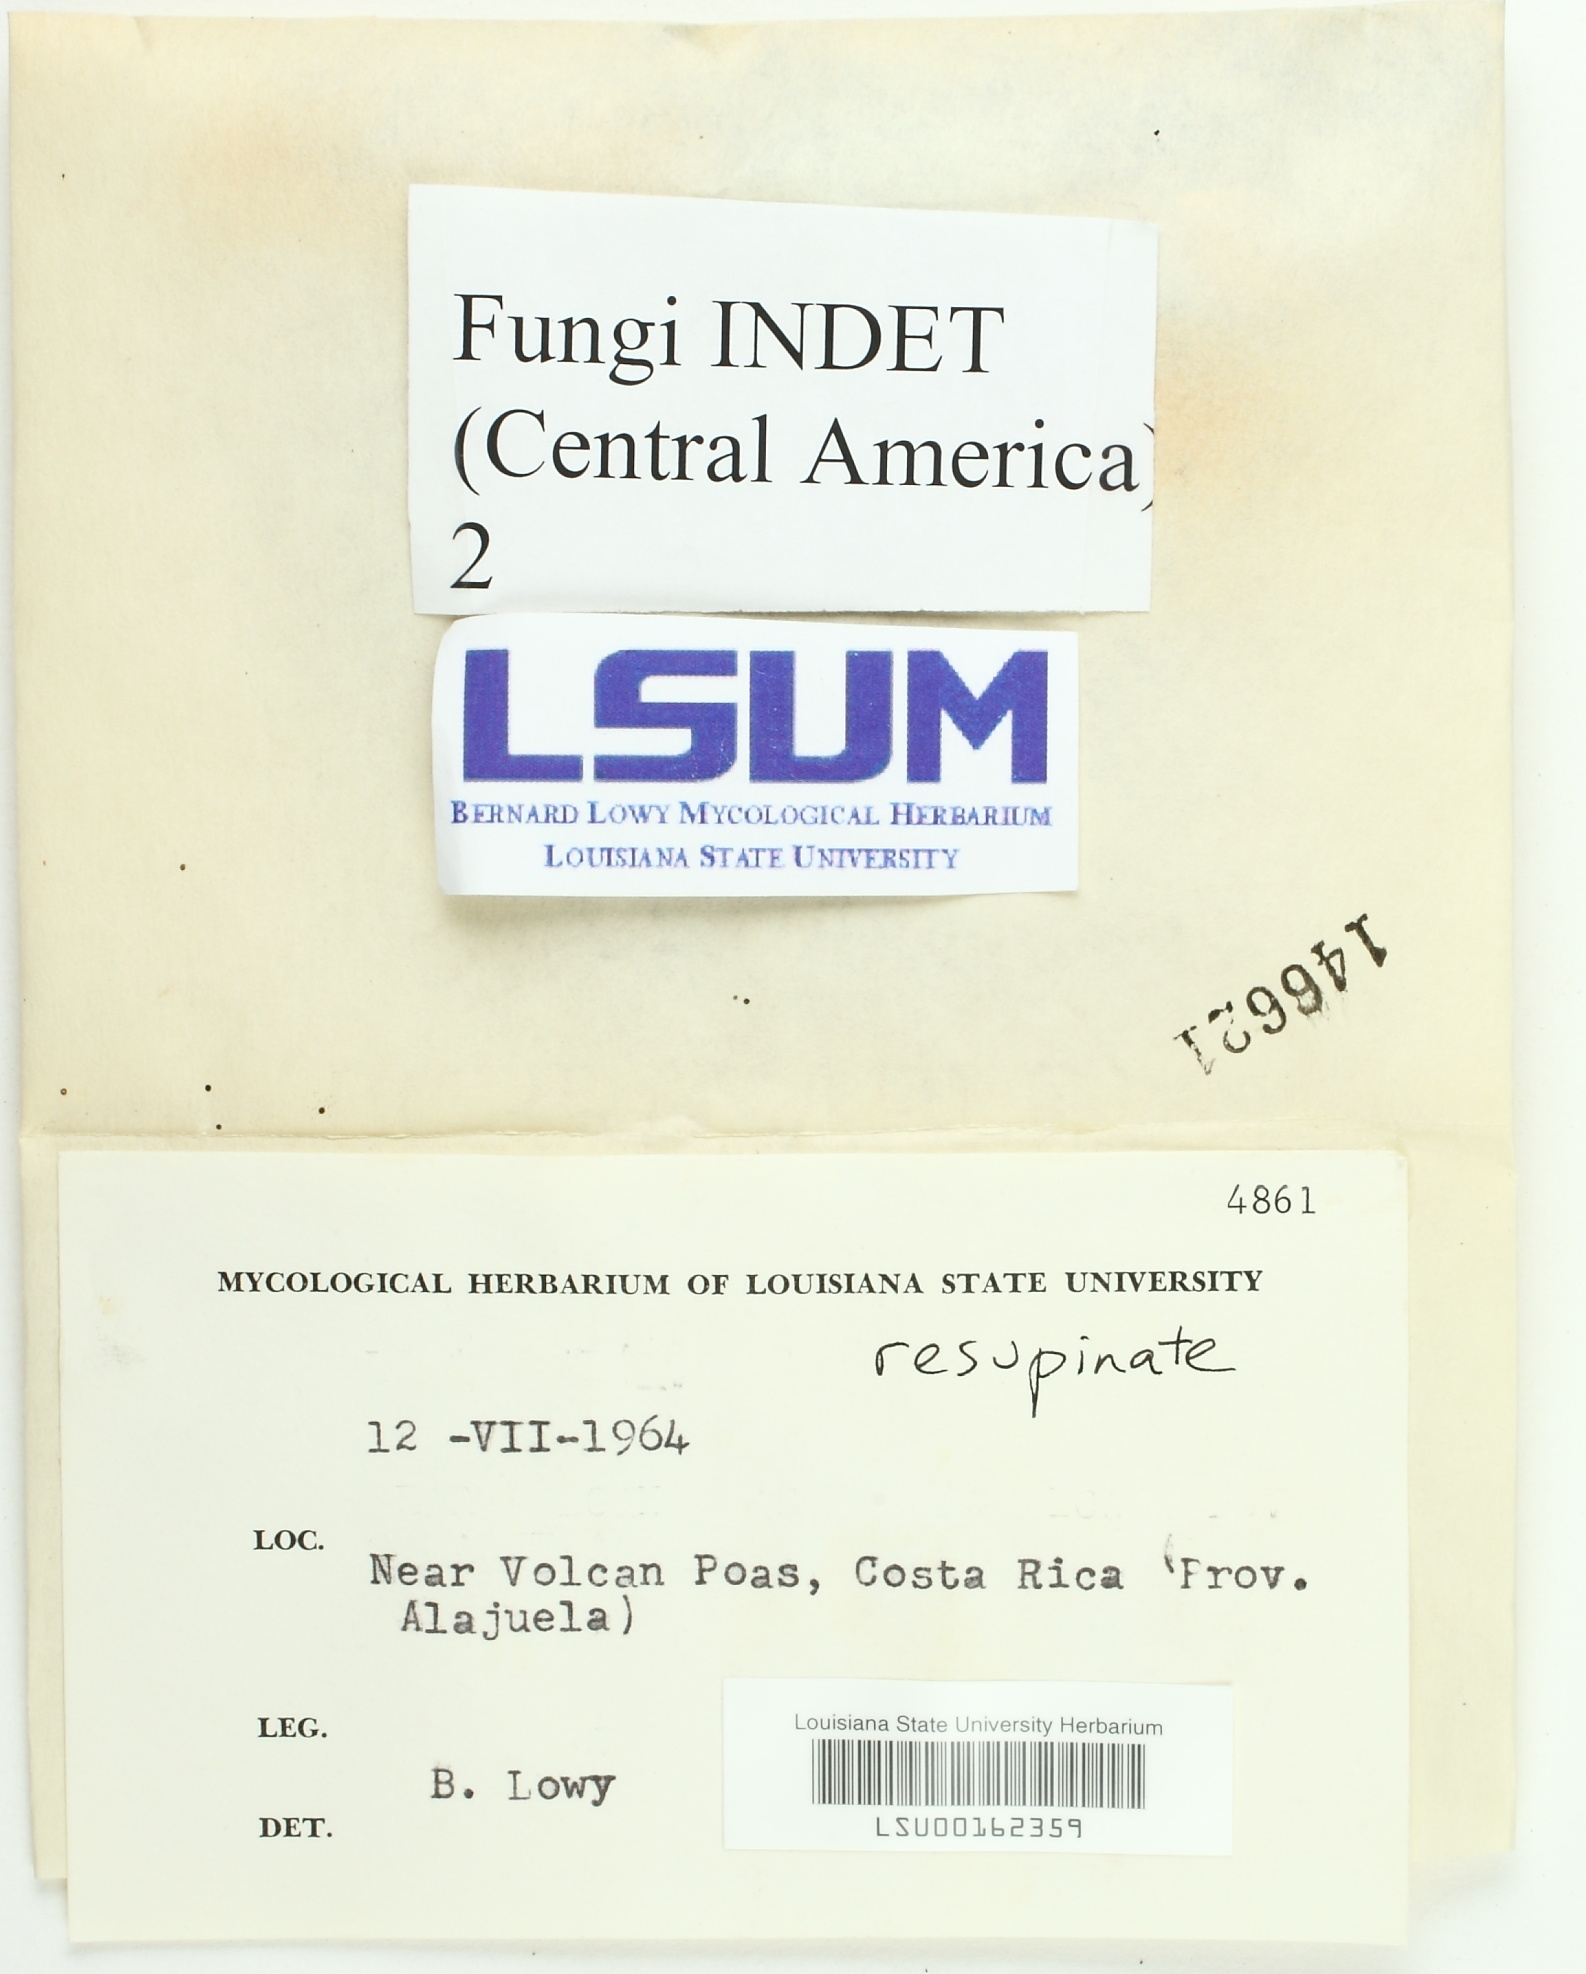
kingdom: Fungi
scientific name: Fungi
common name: Fungi
